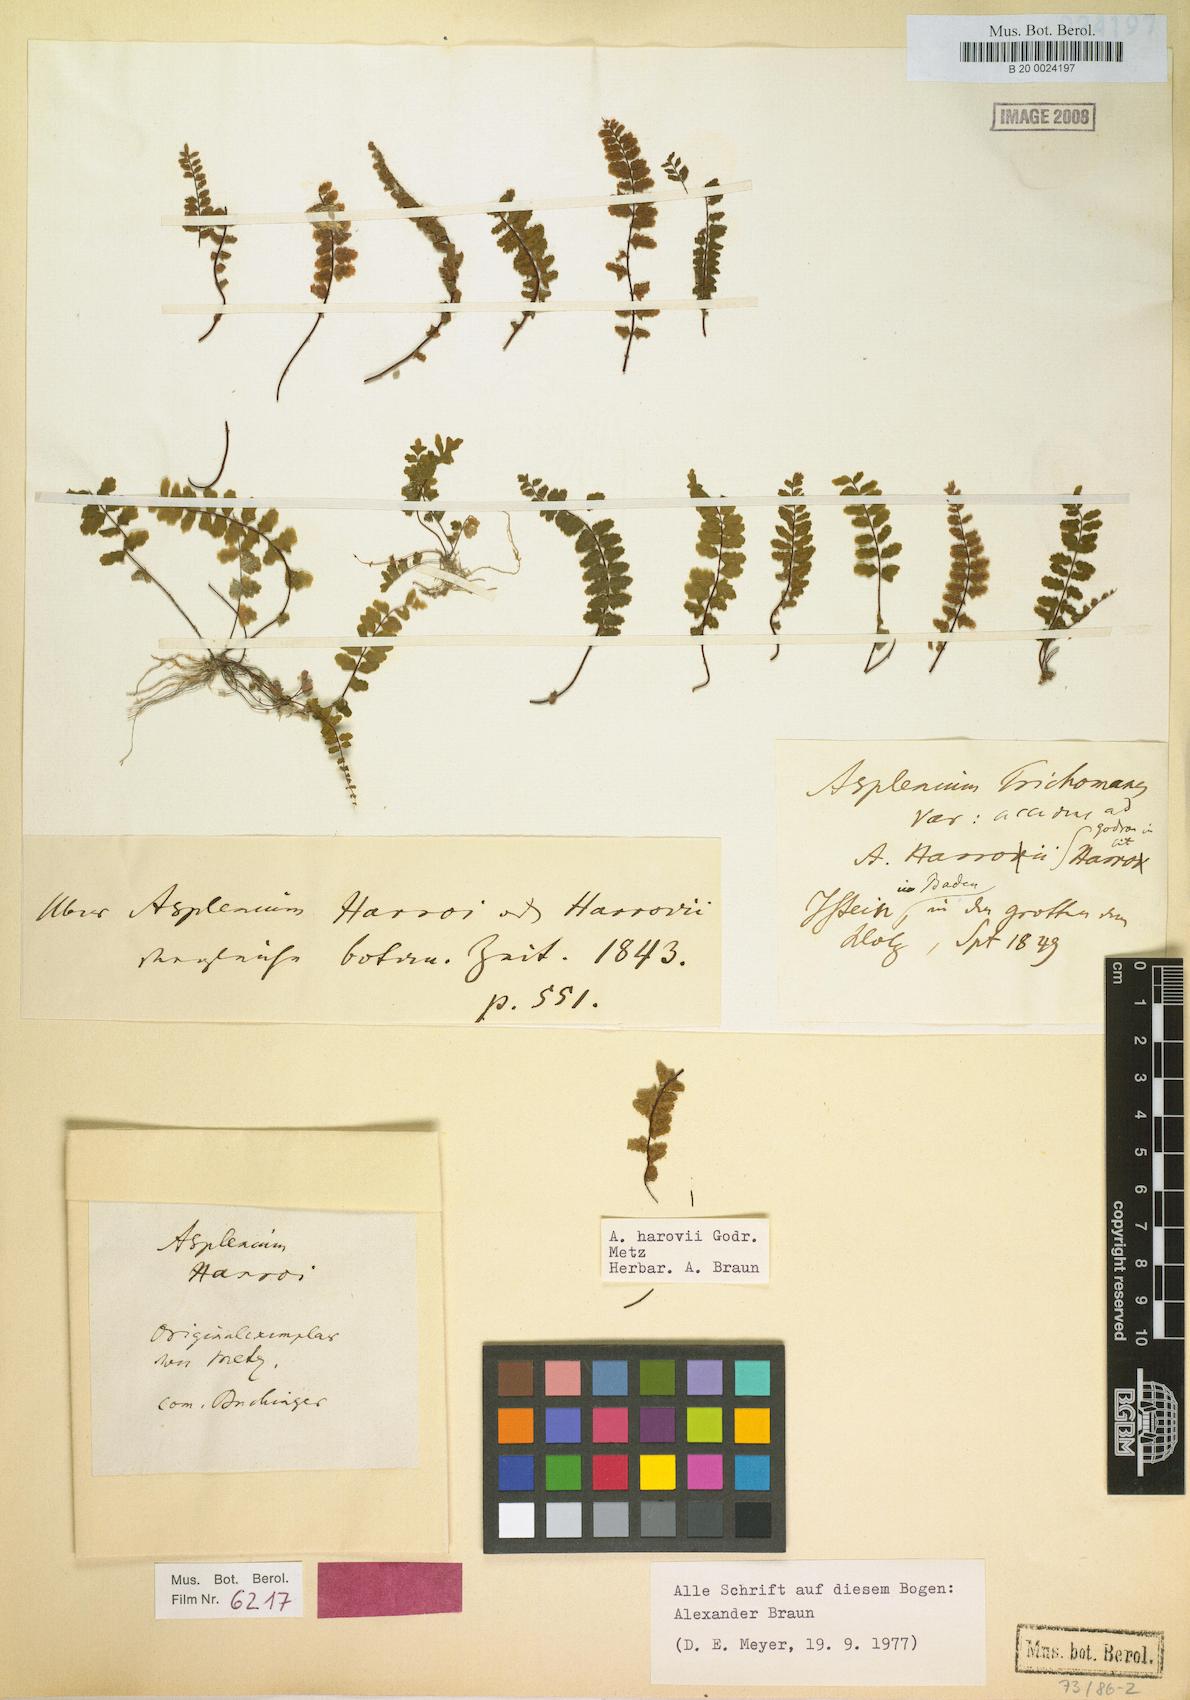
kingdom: Plantae
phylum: Tracheophyta
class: Polypodiopsida
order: Polypodiales
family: Aspleniaceae
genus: Asplenium
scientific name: Asplenium csikii
